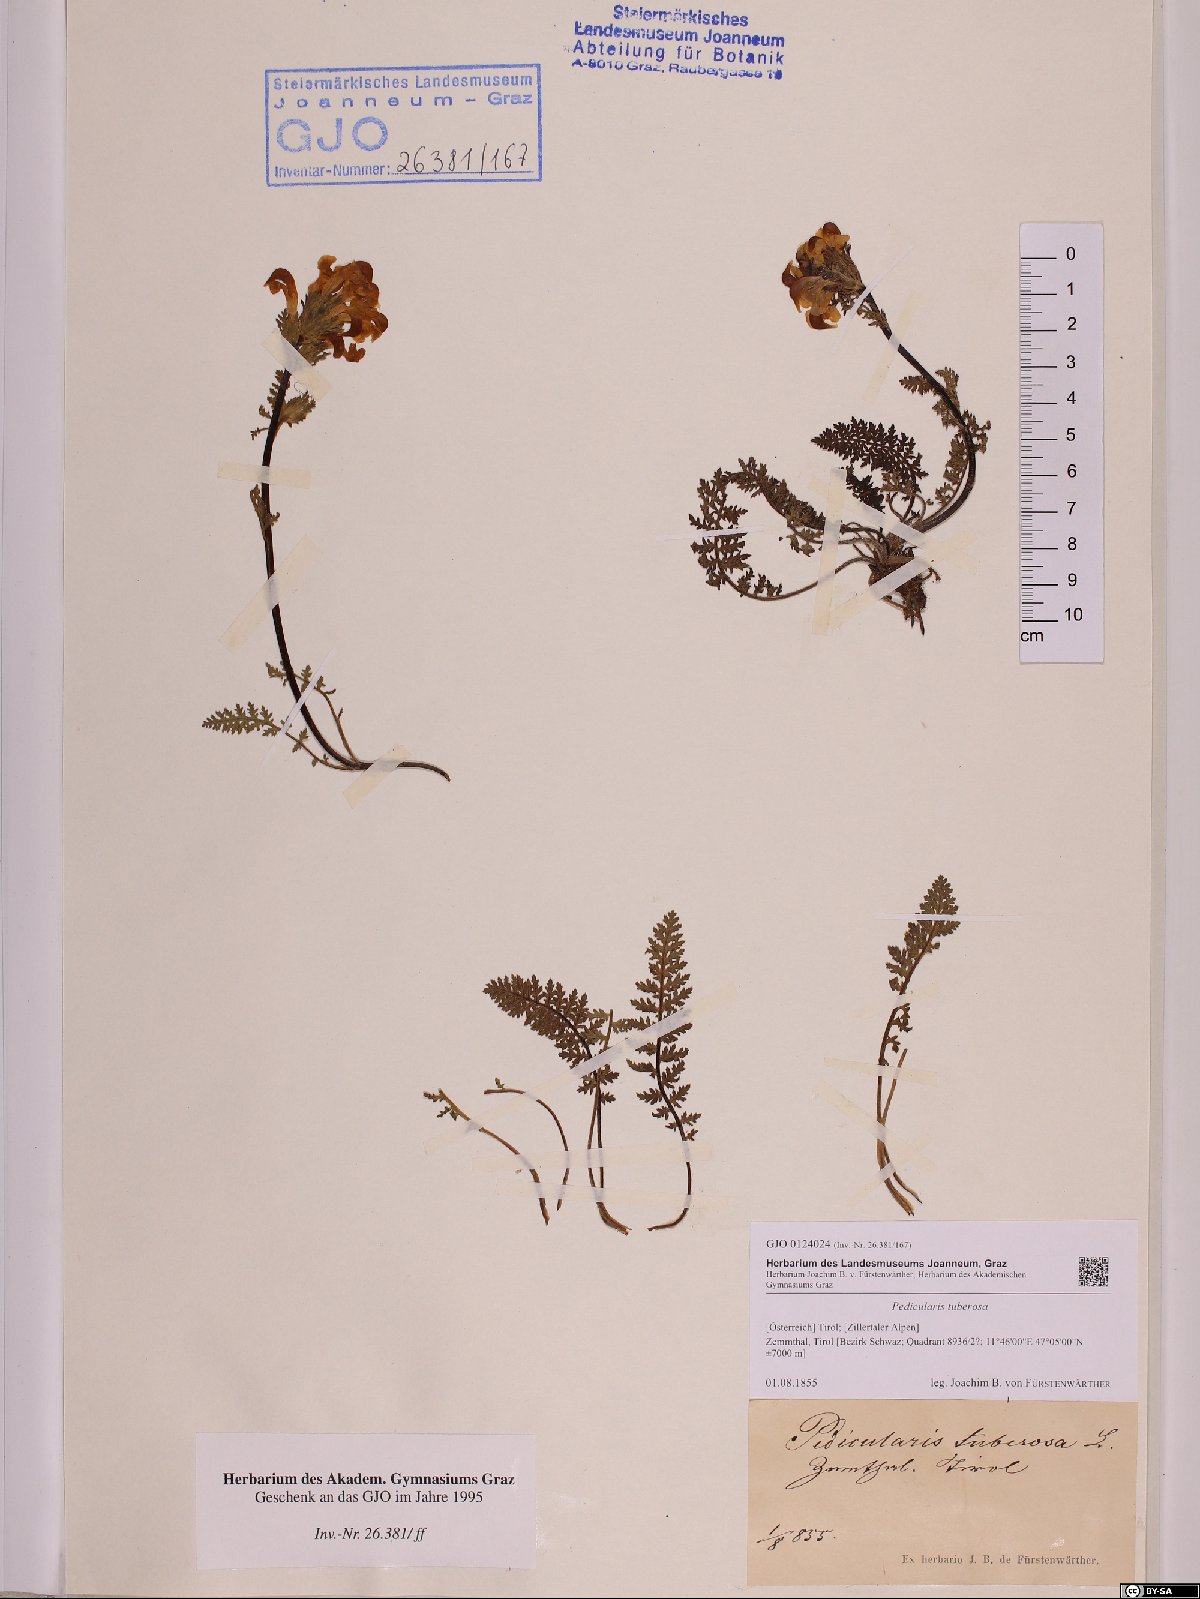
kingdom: Plantae
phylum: Tracheophyta
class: Magnoliopsida
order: Lamiales
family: Orobanchaceae
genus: Pedicularis
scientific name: Pedicularis tuberosa
